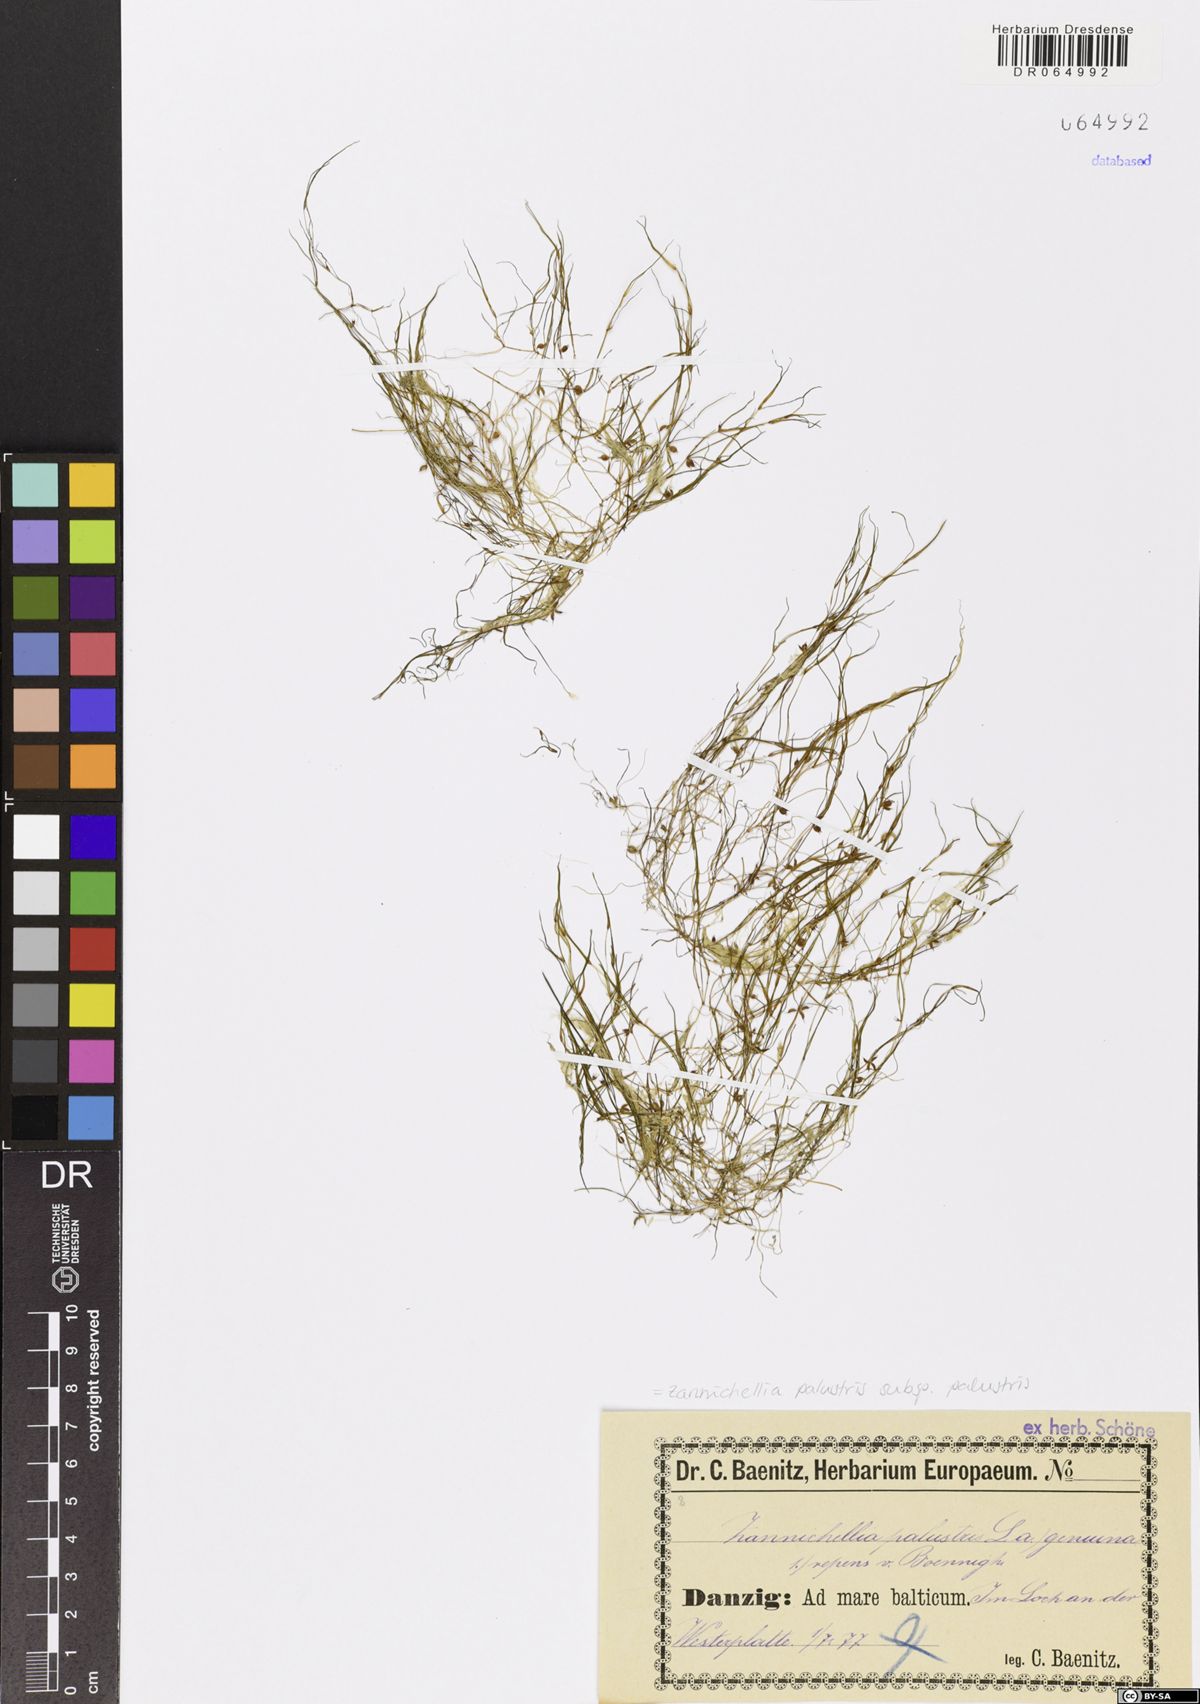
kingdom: Plantae
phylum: Tracheophyta
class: Liliopsida
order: Alismatales
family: Potamogetonaceae
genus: Zannichellia
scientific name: Zannichellia palustris
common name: Horned pondweed
